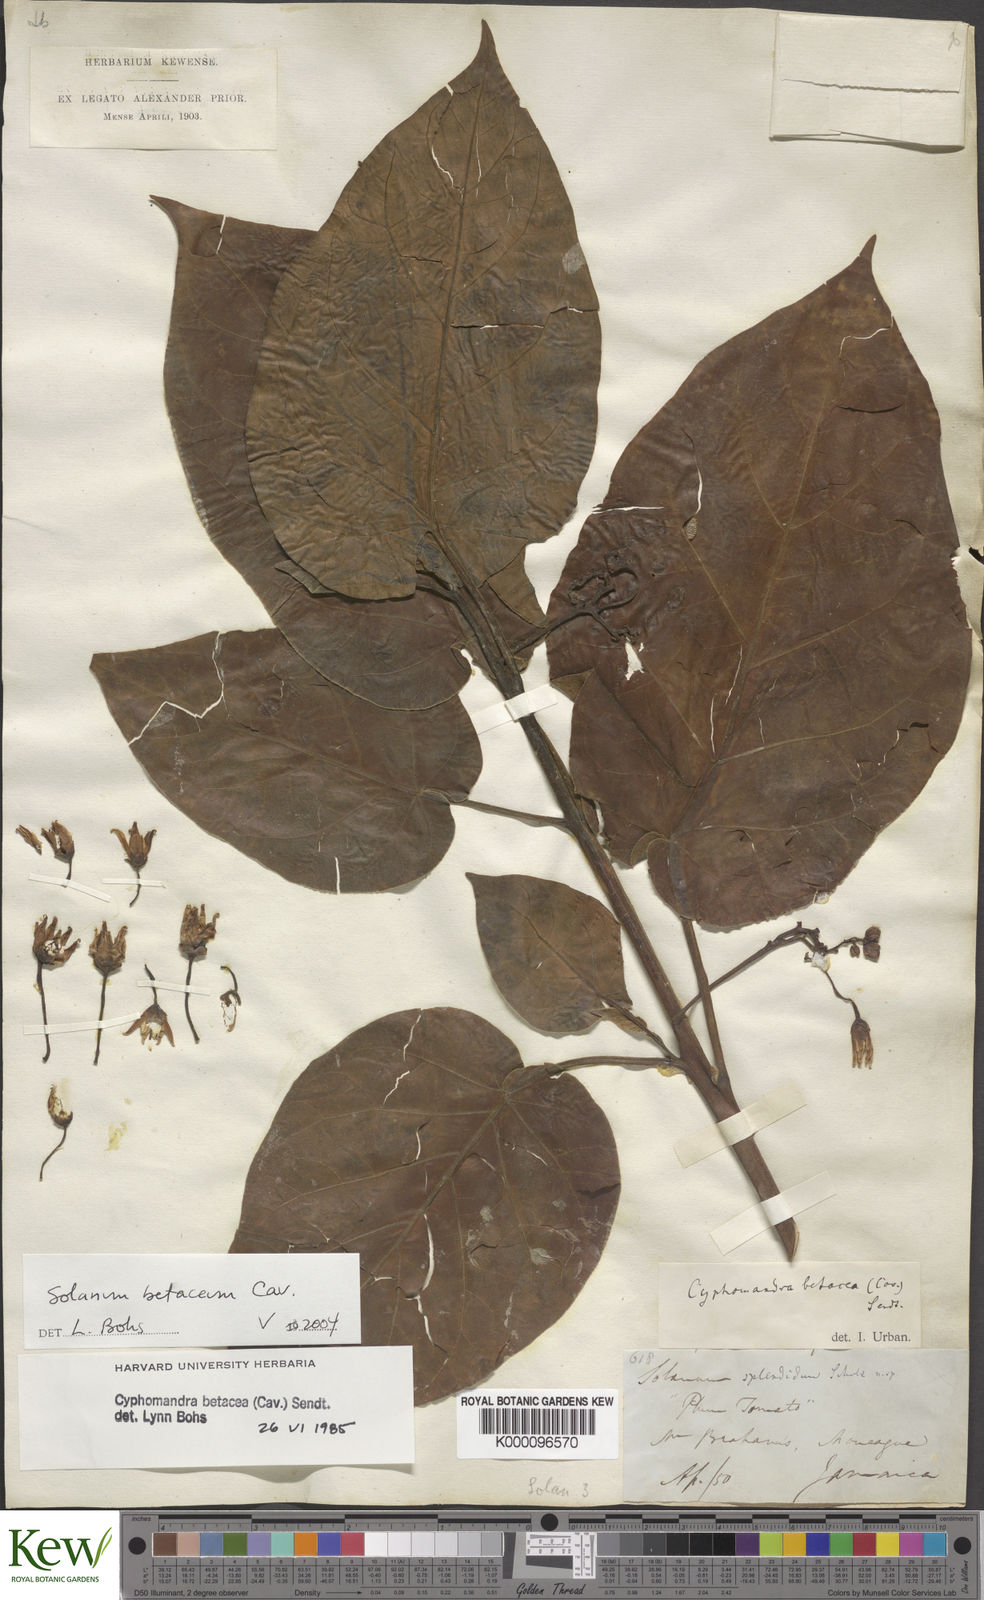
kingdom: Plantae
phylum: Tracheophyta
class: Magnoliopsida
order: Solanales
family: Solanaceae
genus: Solanum
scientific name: Solanum
